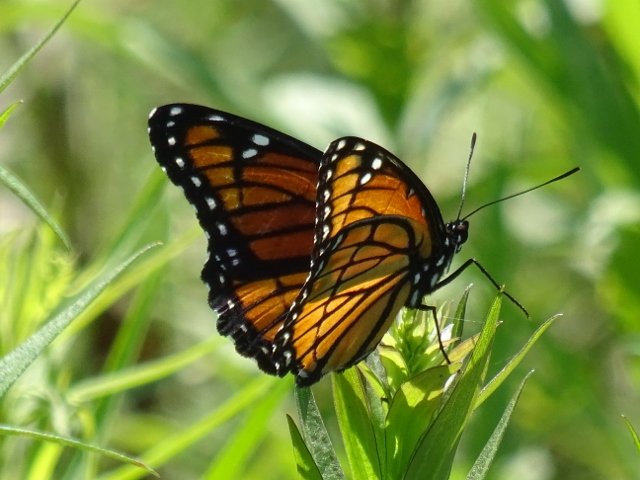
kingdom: Animalia
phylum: Arthropoda
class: Insecta
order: Lepidoptera
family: Nymphalidae
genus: Limenitis
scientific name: Limenitis archippus
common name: Viceroy
